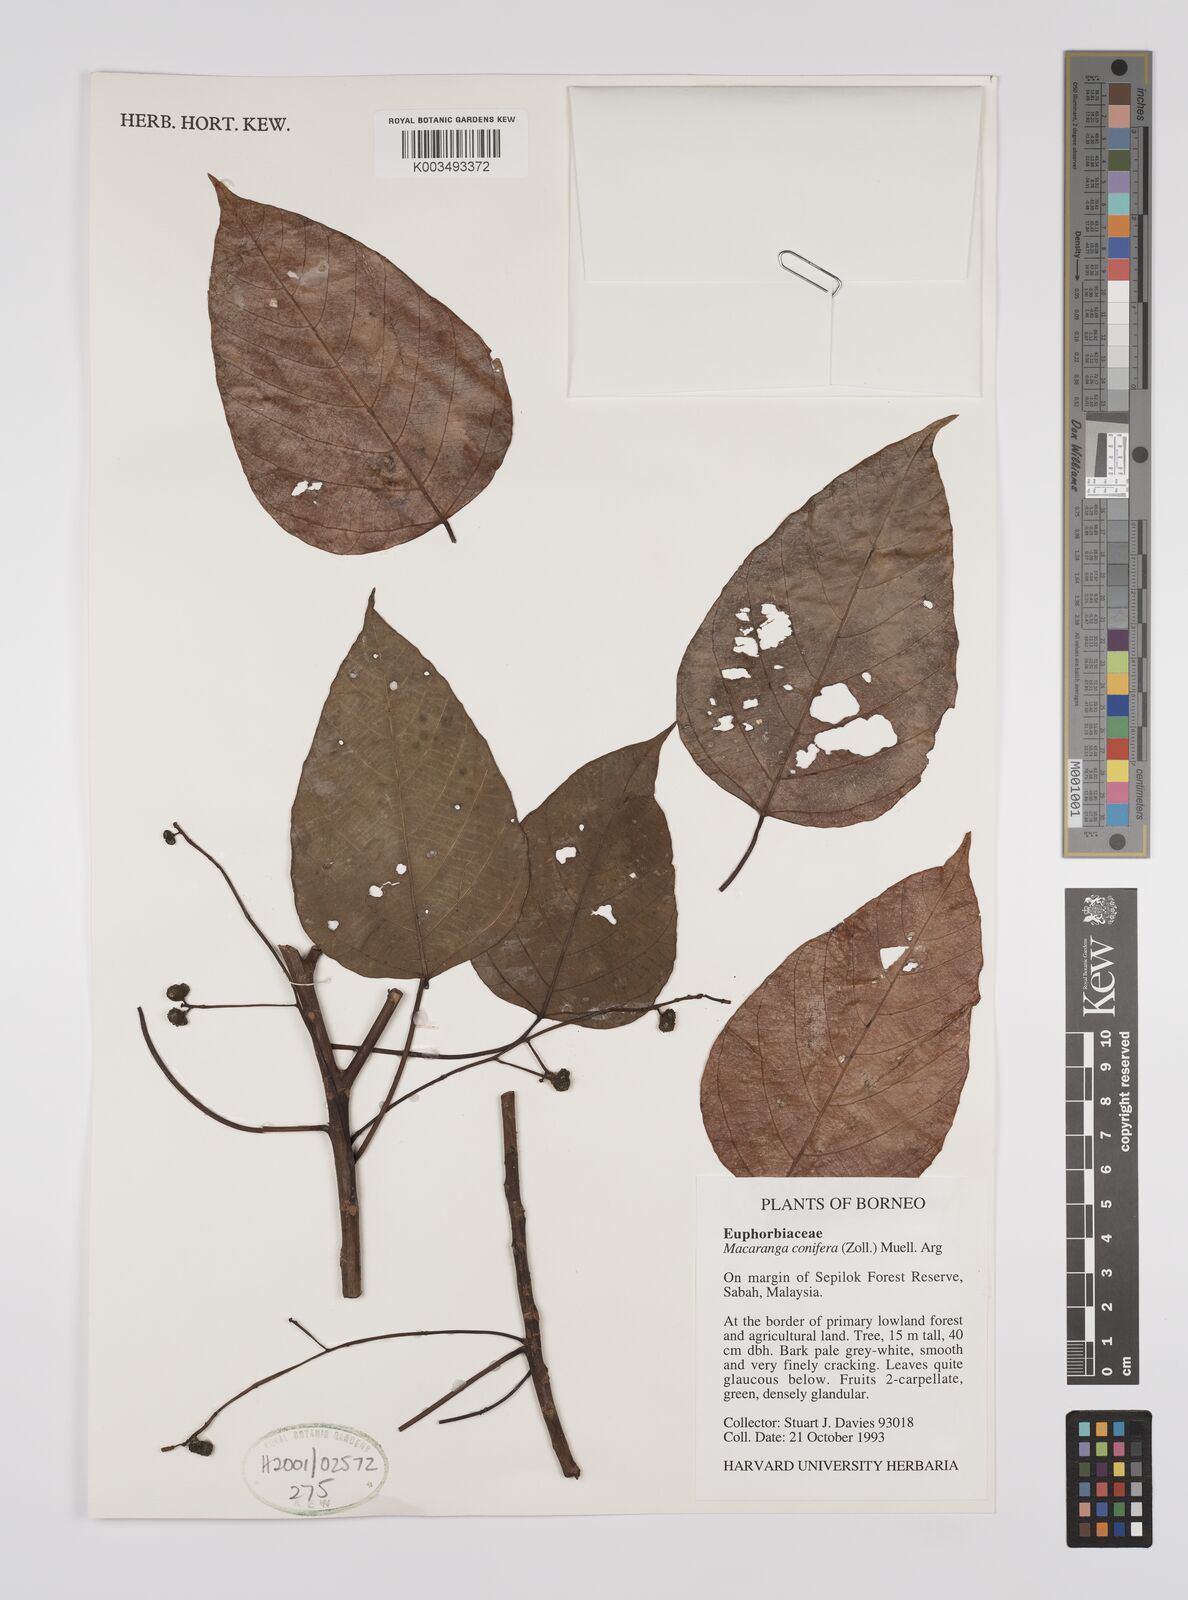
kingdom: Plantae
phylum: Tracheophyta
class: Magnoliopsida
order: Malpighiales
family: Euphorbiaceae
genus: Macaranga
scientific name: Macaranga conifera
